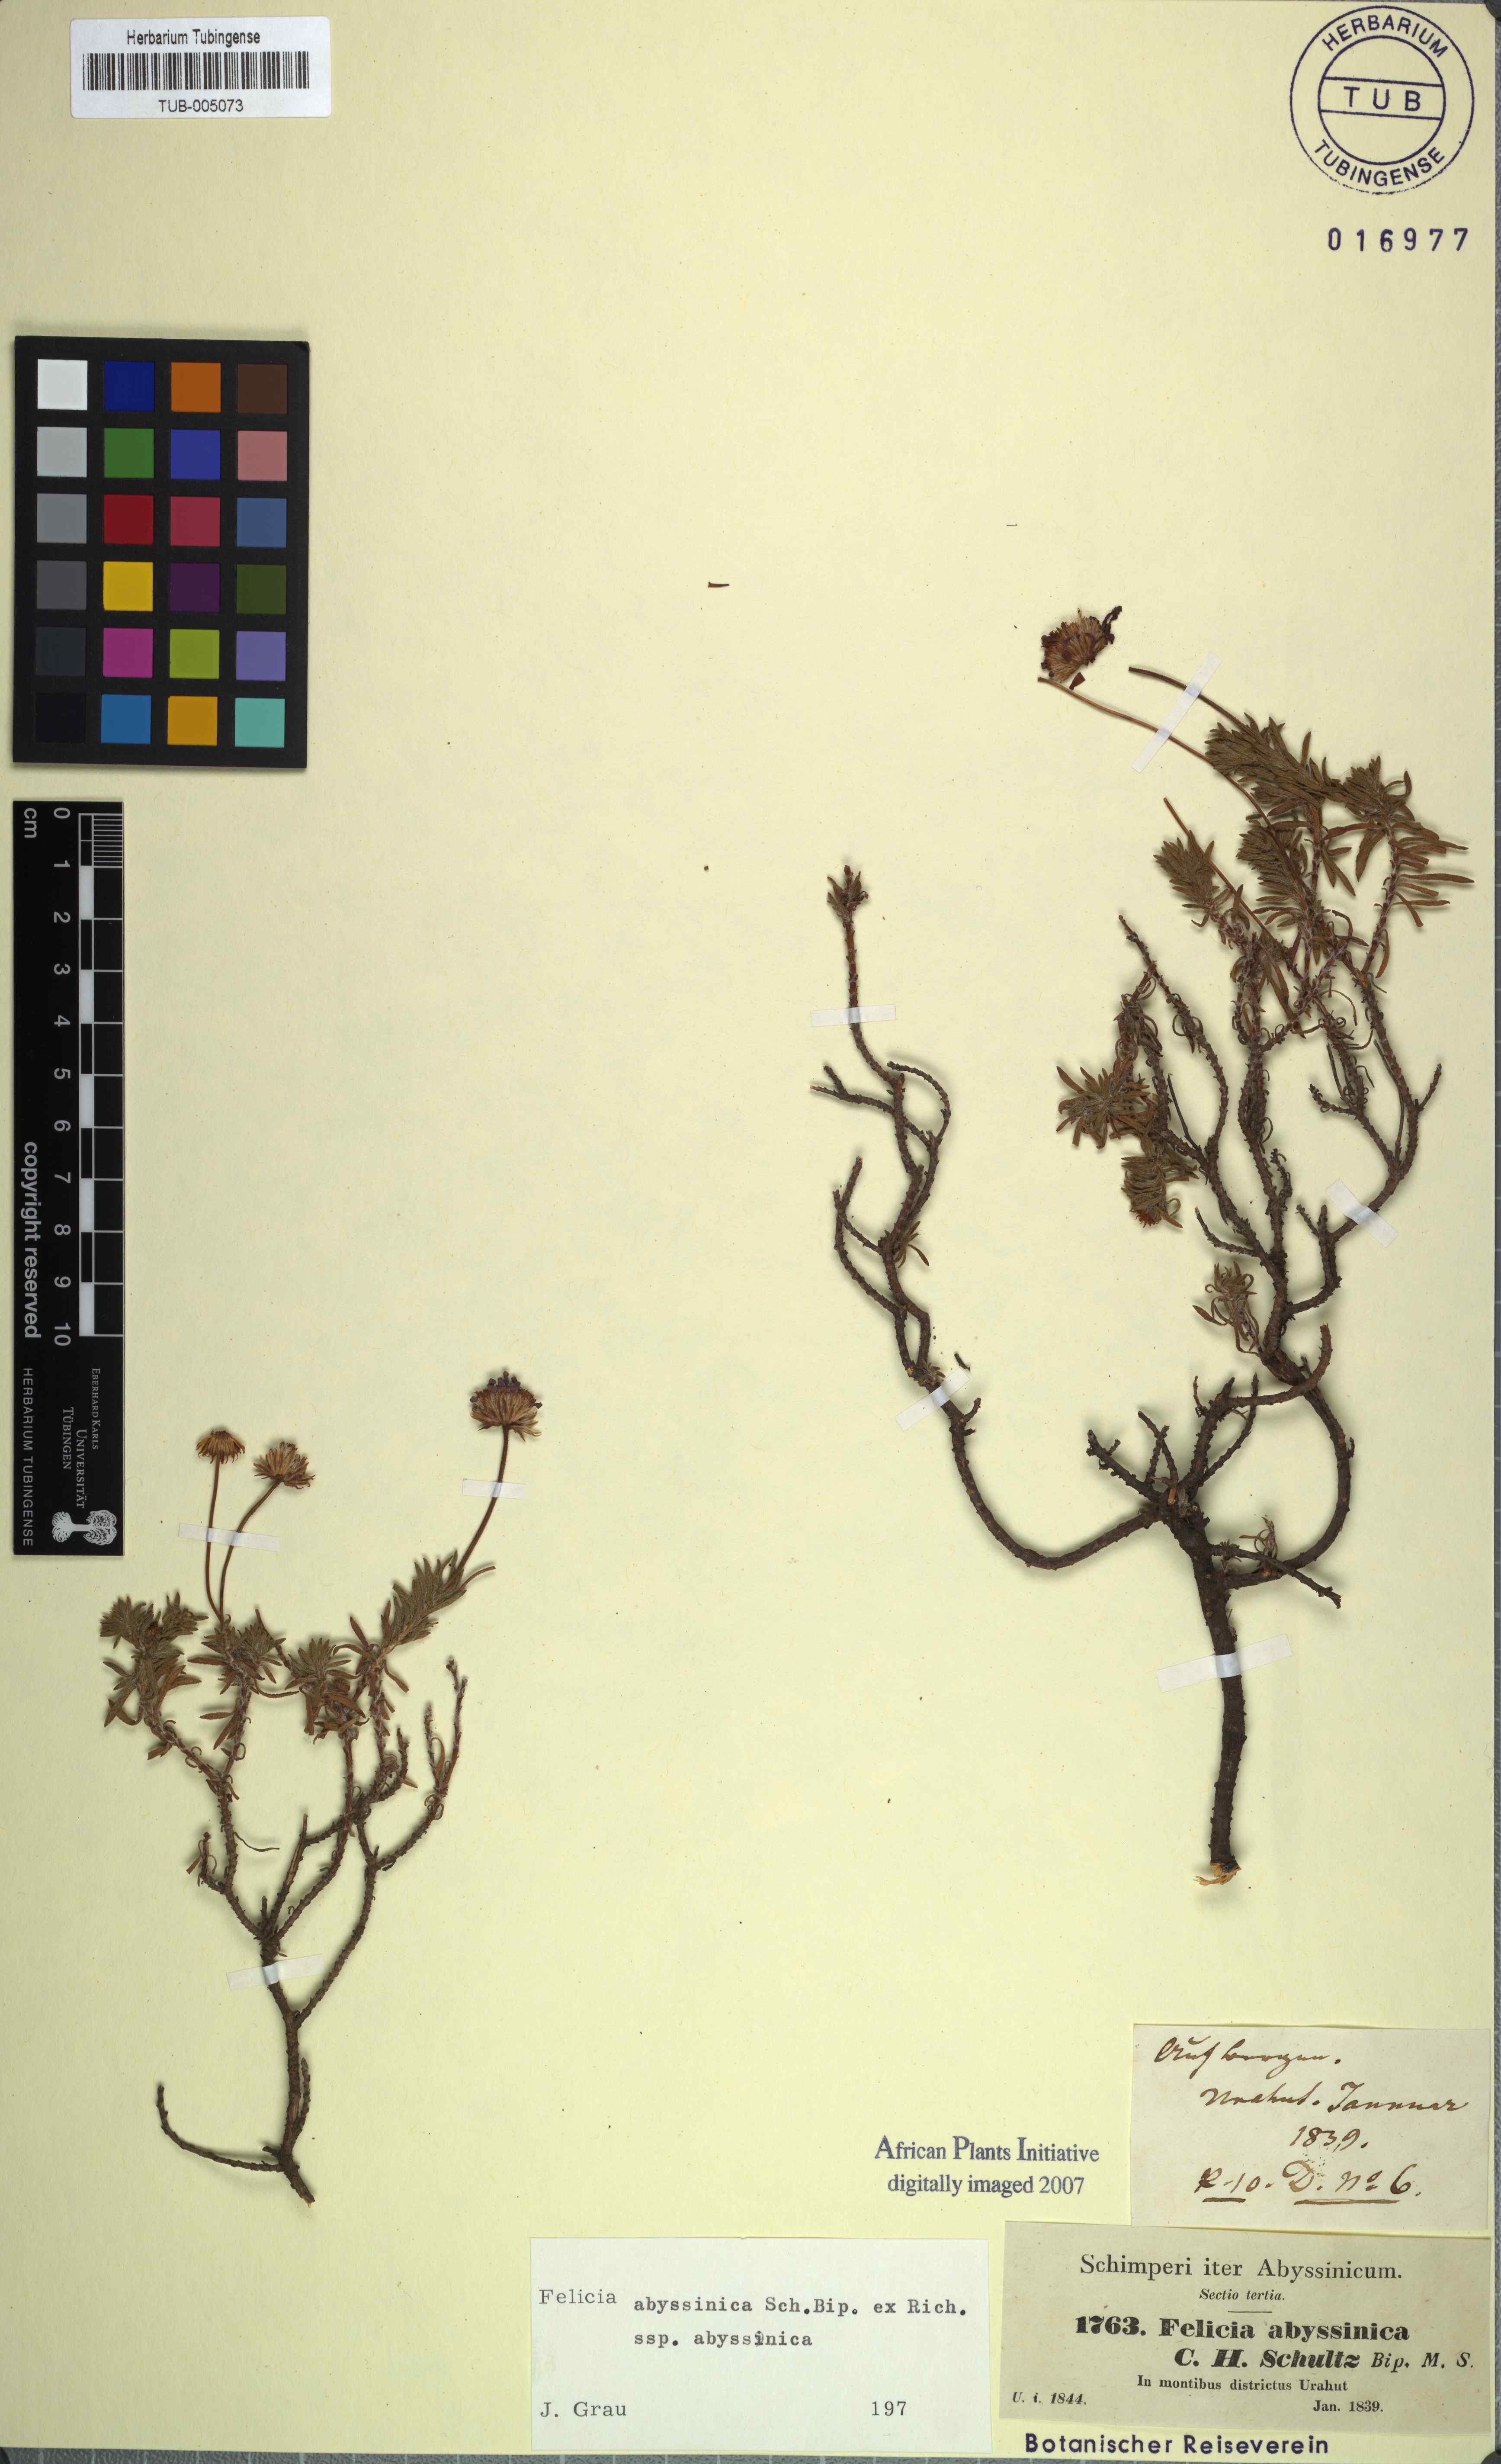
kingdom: Plantae
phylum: Tracheophyta
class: Magnoliopsida
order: Asterales
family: Asteraceae
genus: Felicia
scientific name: Felicia abyssinica
